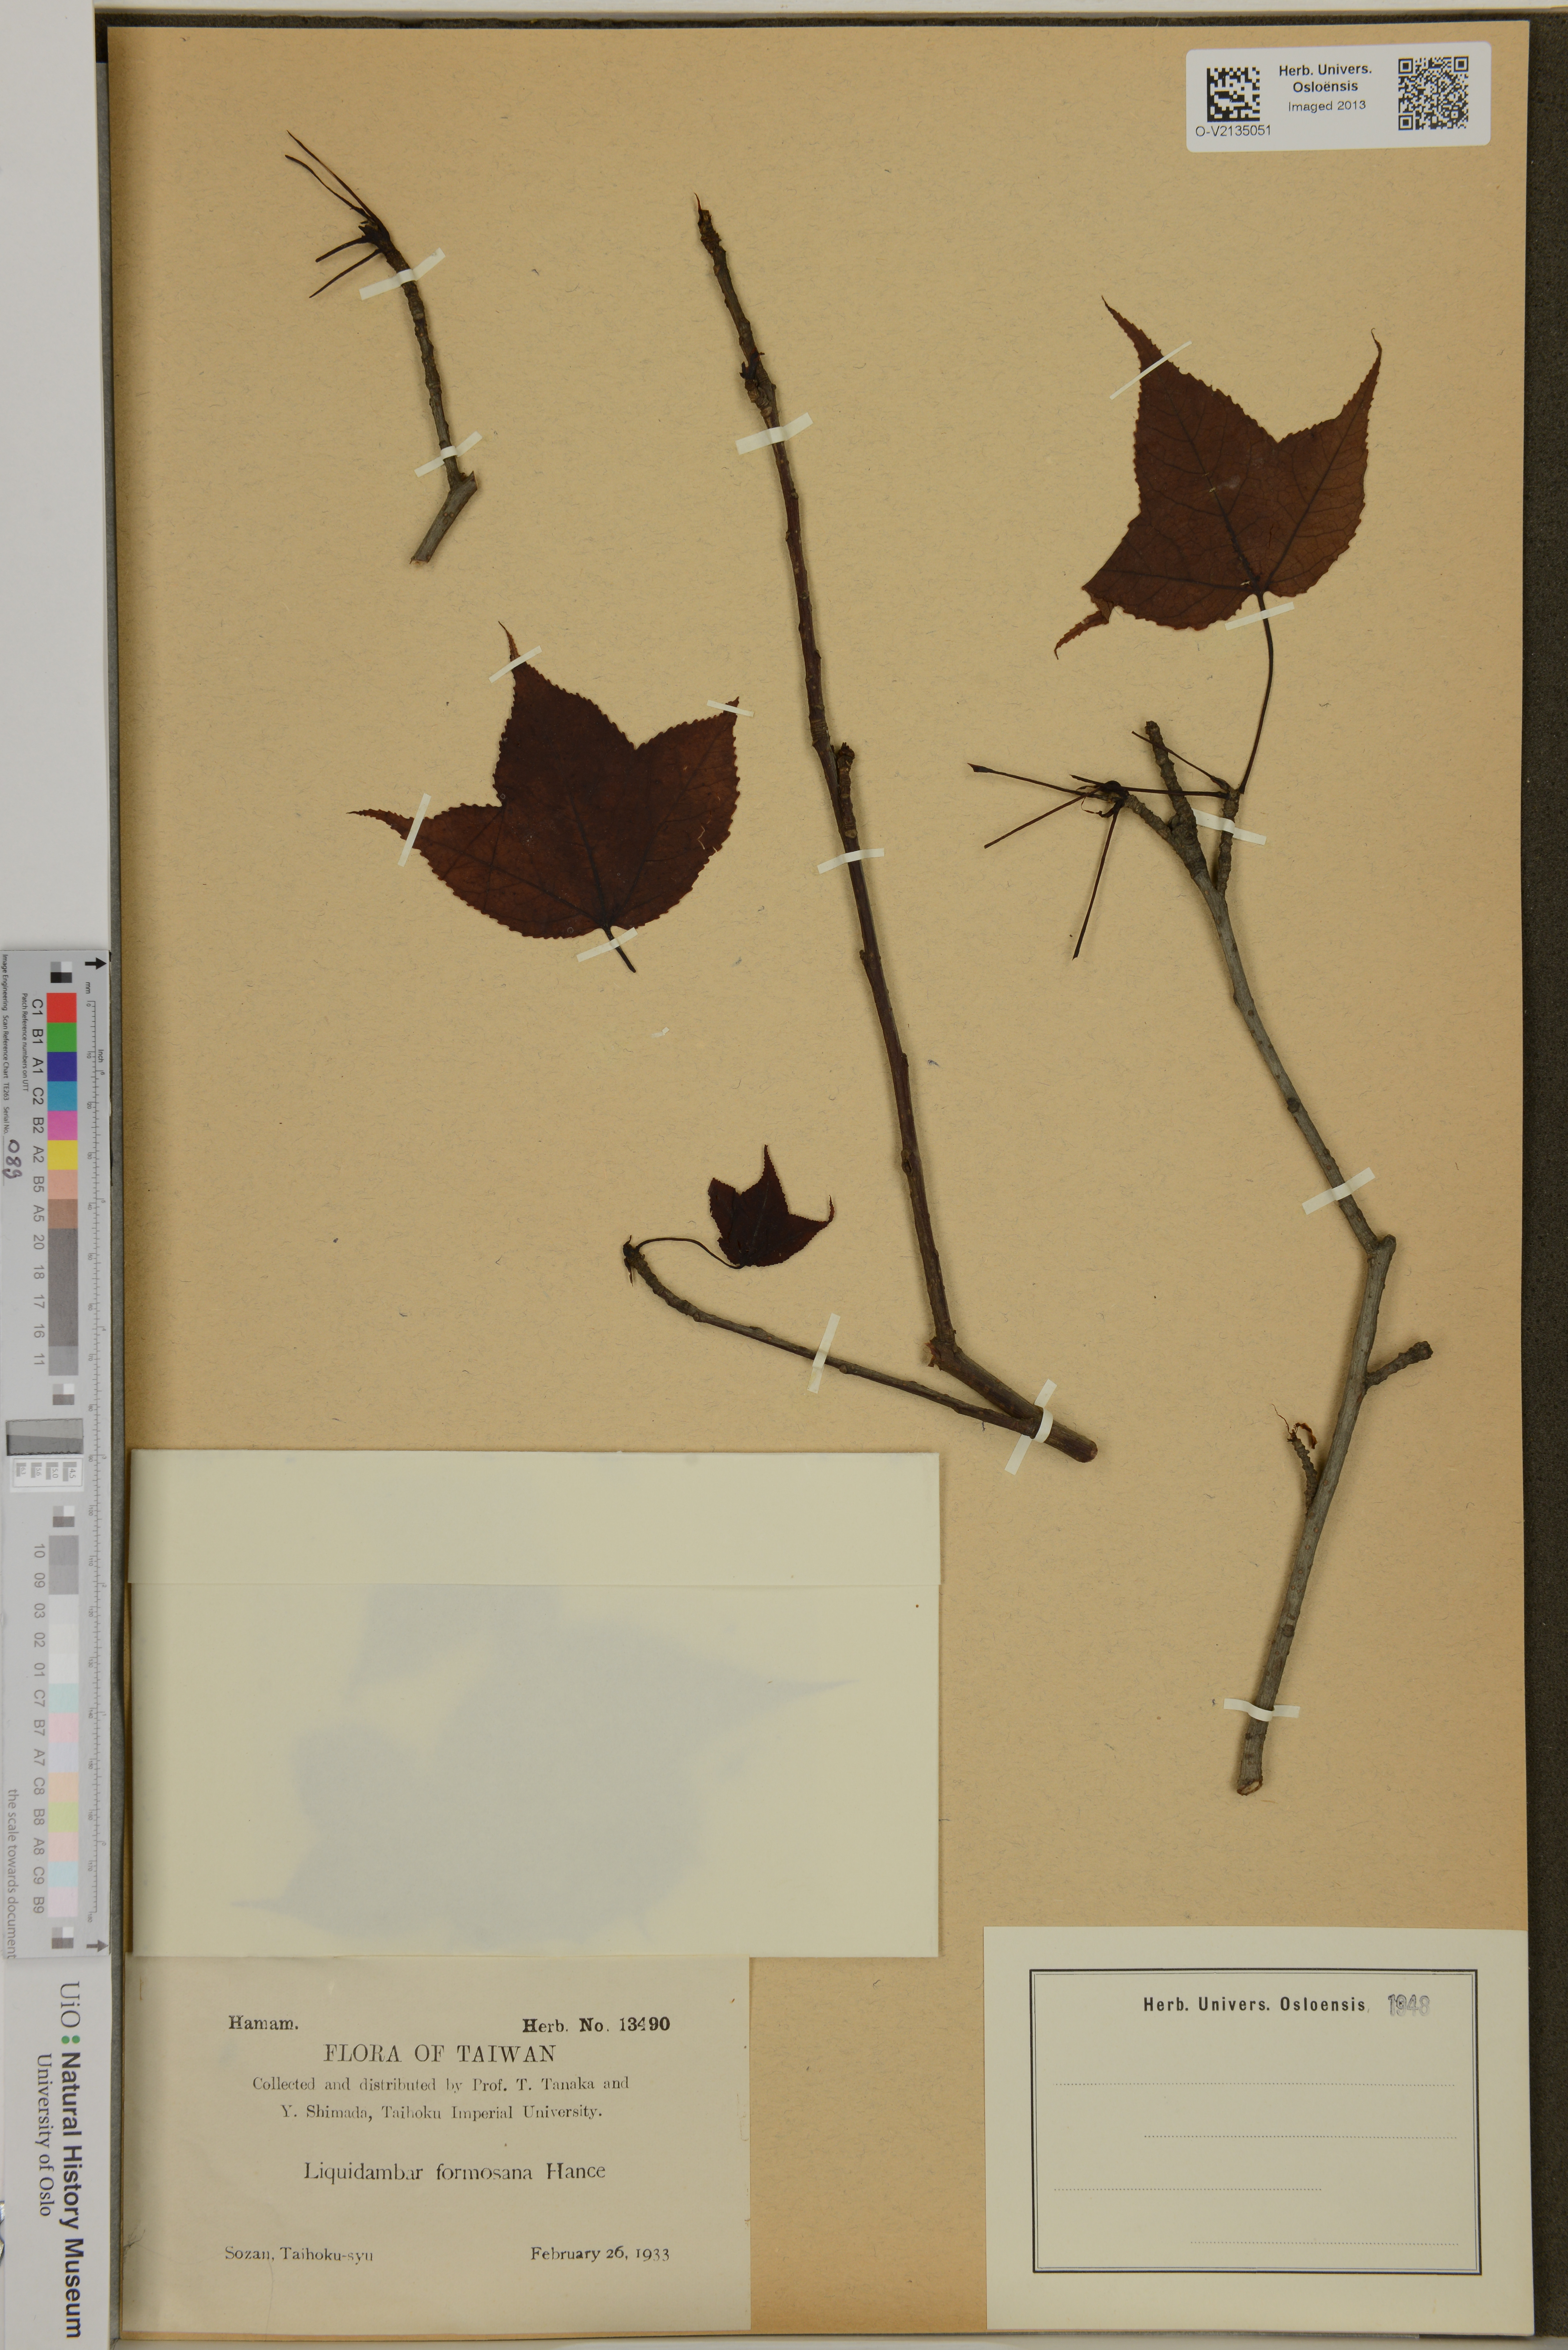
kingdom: Plantae
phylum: Tracheophyta
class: Magnoliopsida
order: Saxifragales
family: Altingiaceae
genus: Liquidambar
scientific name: Liquidambar formosana
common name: Chinese sweet gum
